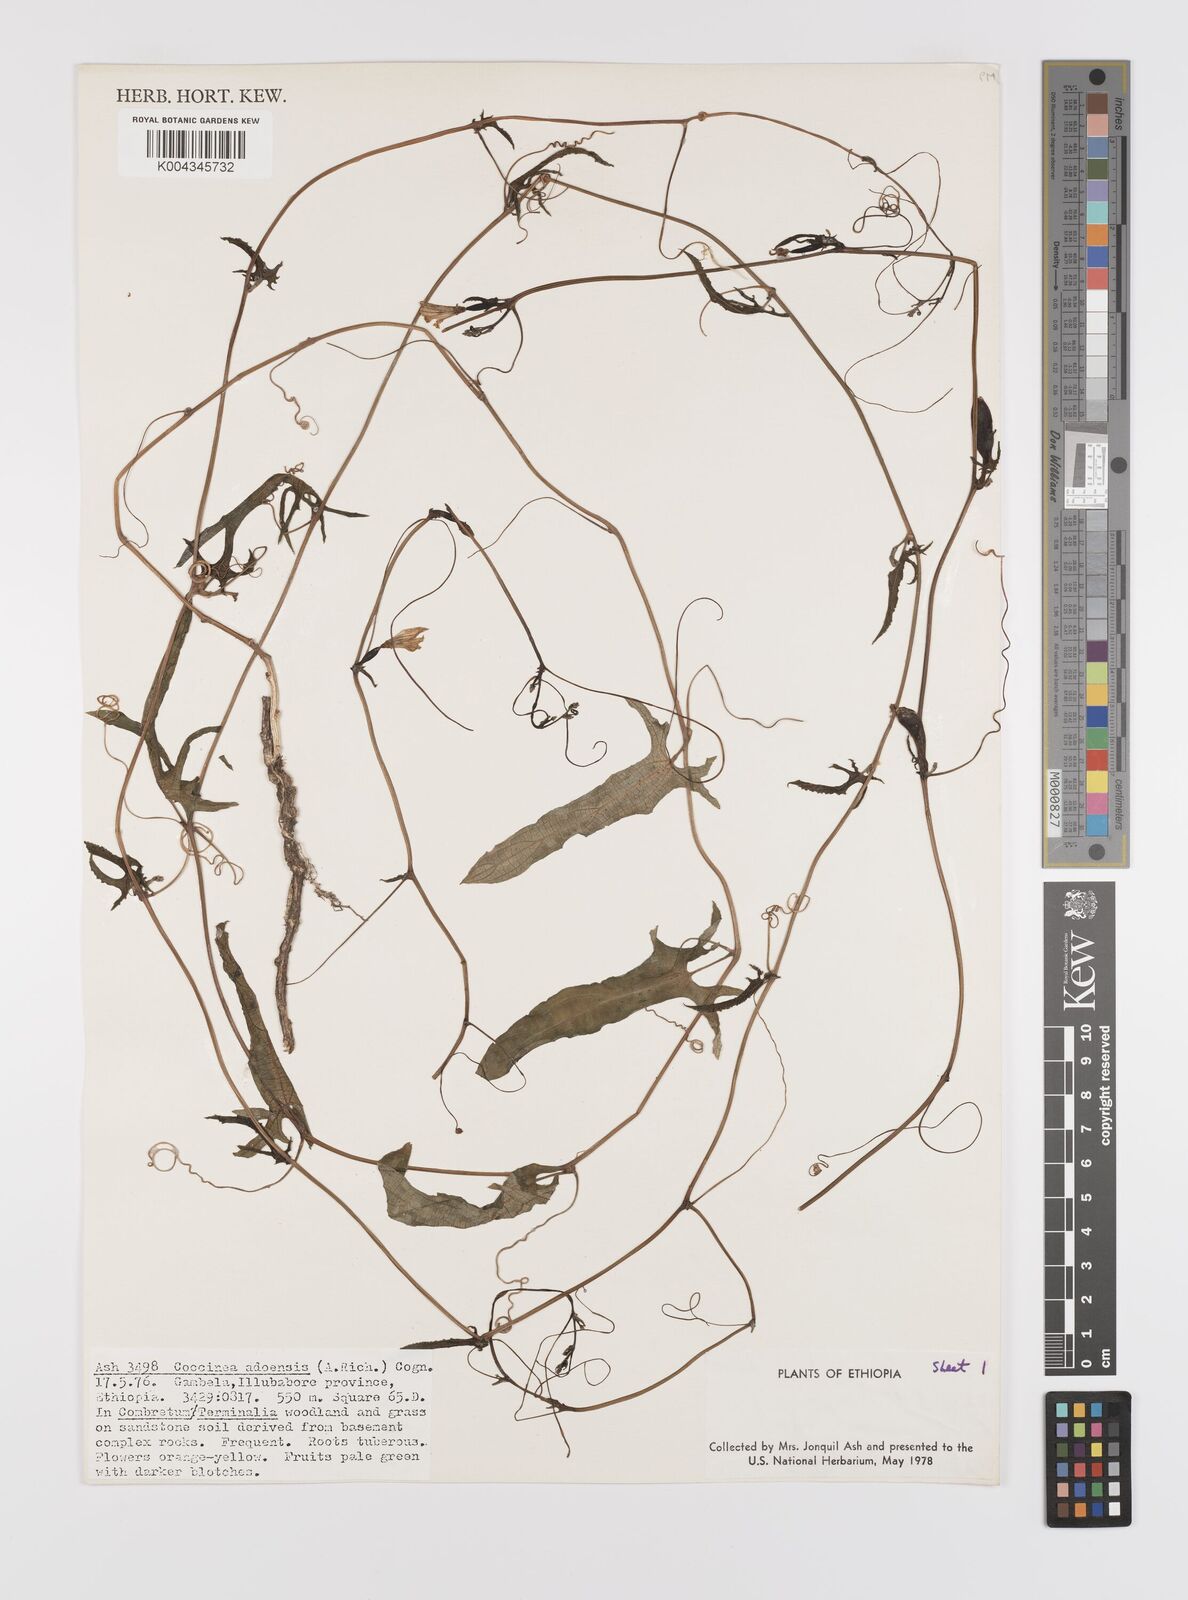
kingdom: Plantae
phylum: Tracheophyta
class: Magnoliopsida
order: Cucurbitales
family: Cucurbitaceae
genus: Coccinia
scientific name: Coccinia adoensis
